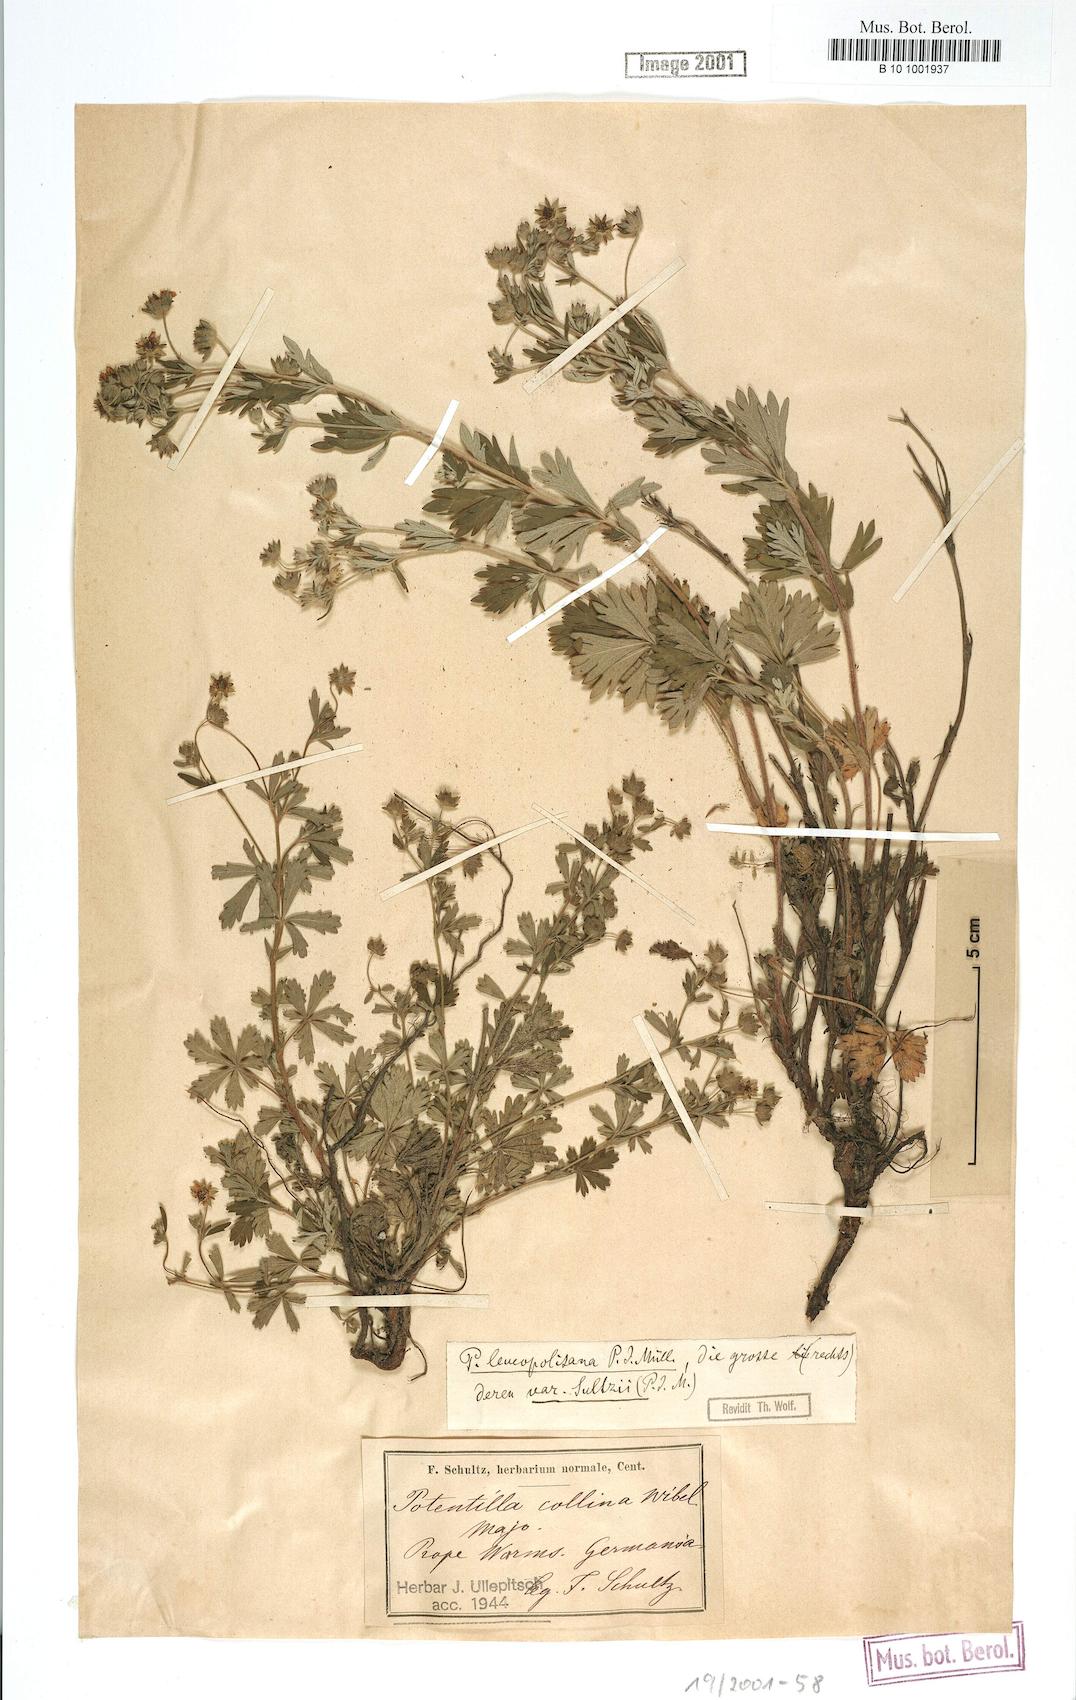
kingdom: Plantae
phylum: Tracheophyta
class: Magnoliopsida
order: Rosales
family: Rosaceae
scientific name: Rosaceae
